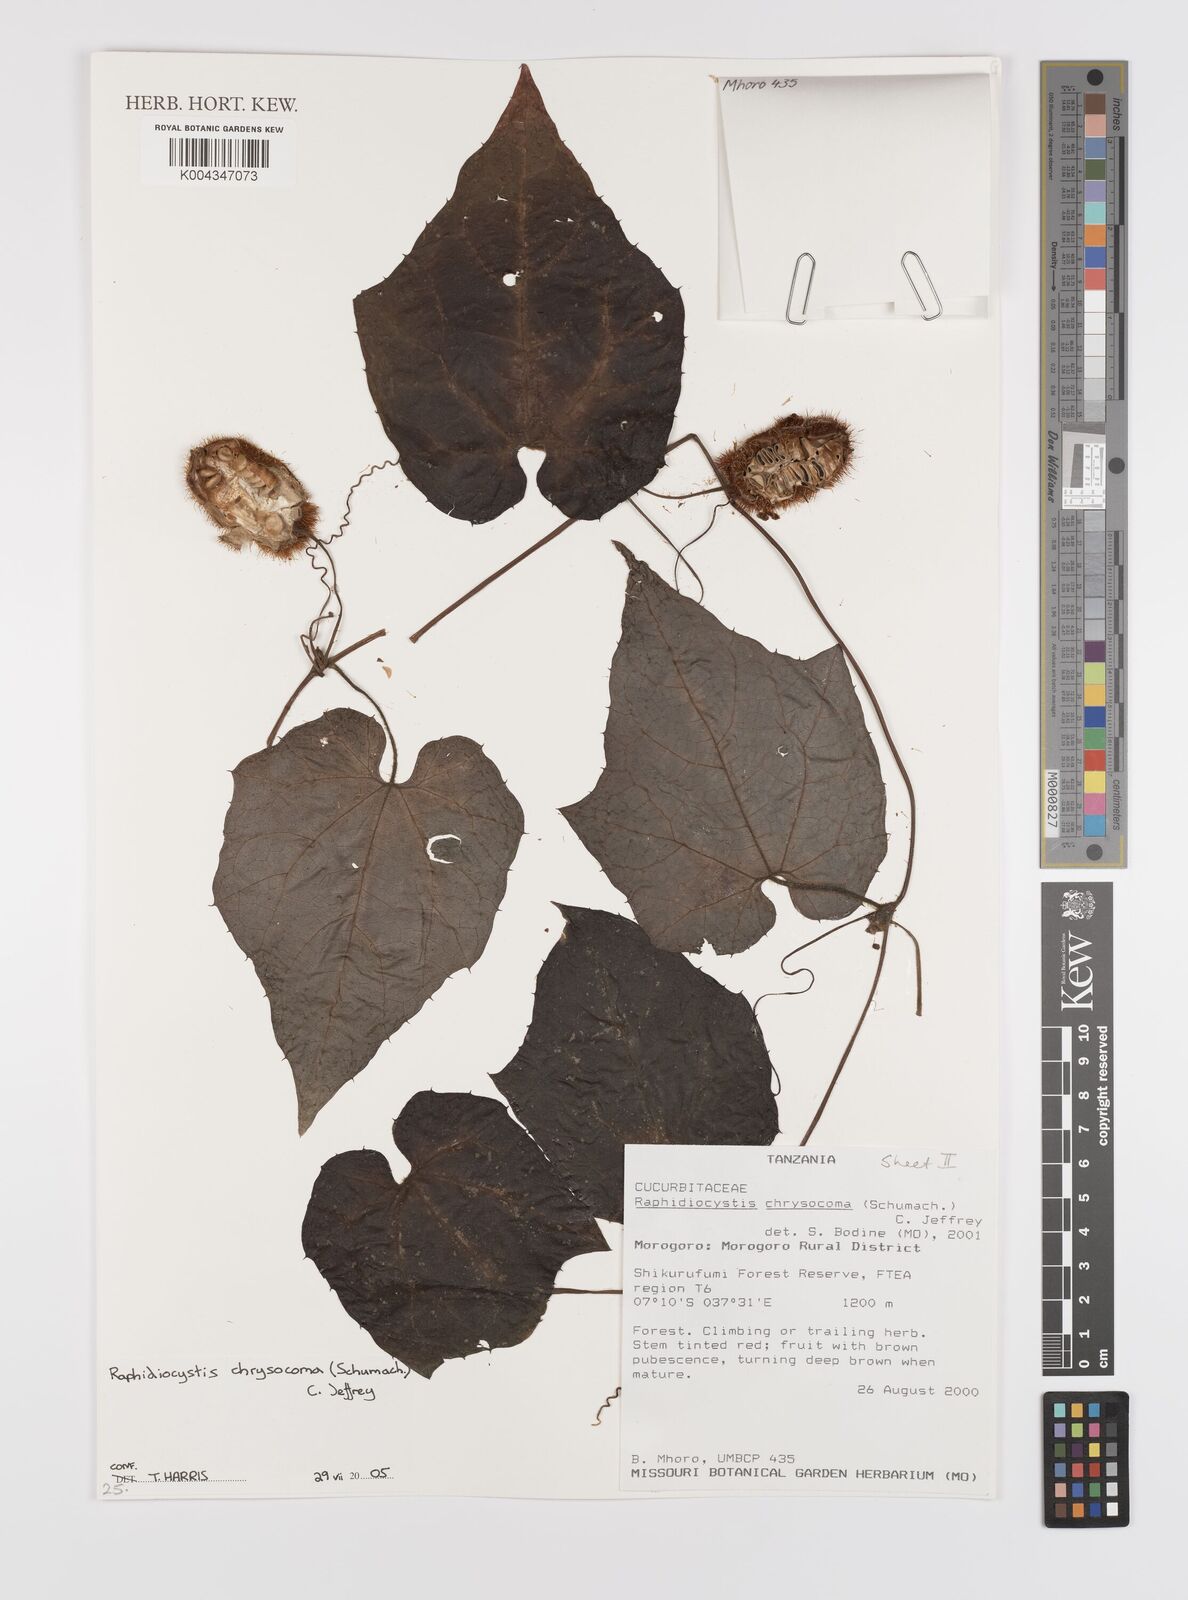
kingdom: Plantae
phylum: Tracheophyta
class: Magnoliopsida
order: Cucurbitales
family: Cucurbitaceae
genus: Raphidiocystis
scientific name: Raphidiocystis chrysocoma
